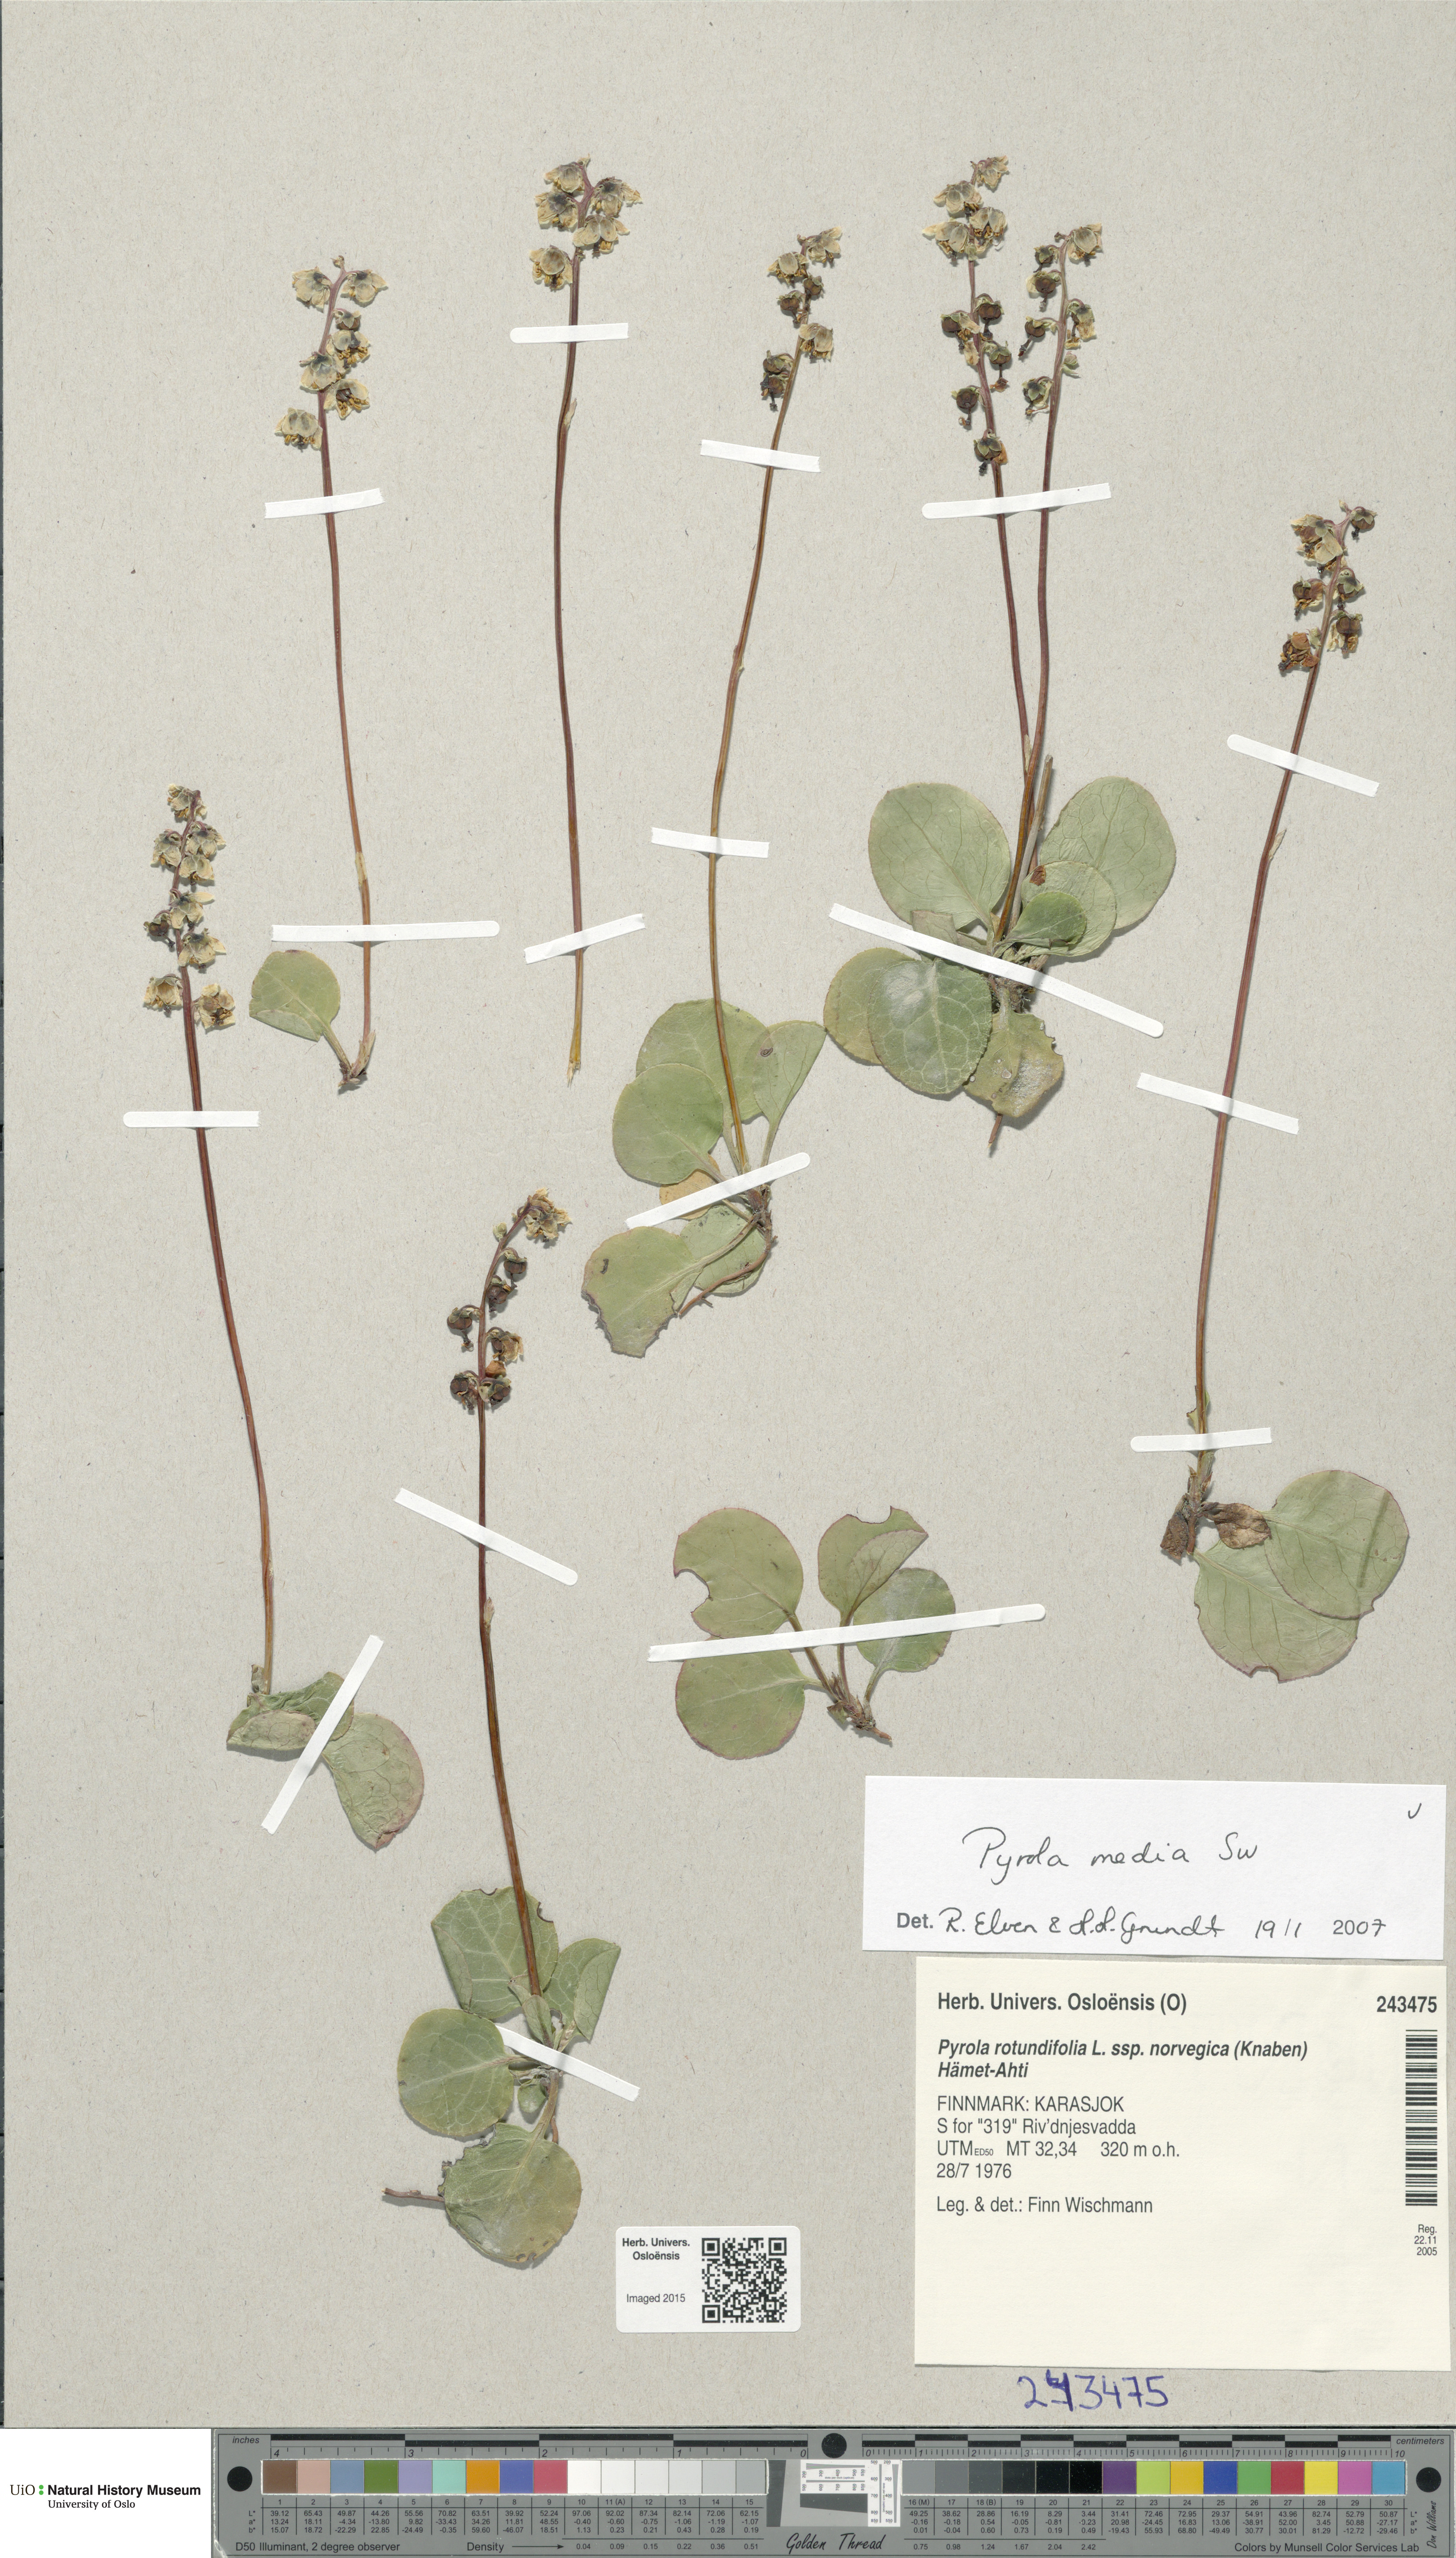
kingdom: Plantae
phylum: Tracheophyta
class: Magnoliopsida
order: Ericales
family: Ericaceae
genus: Pyrola
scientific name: Pyrola media
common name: Intermediate wintergreen
